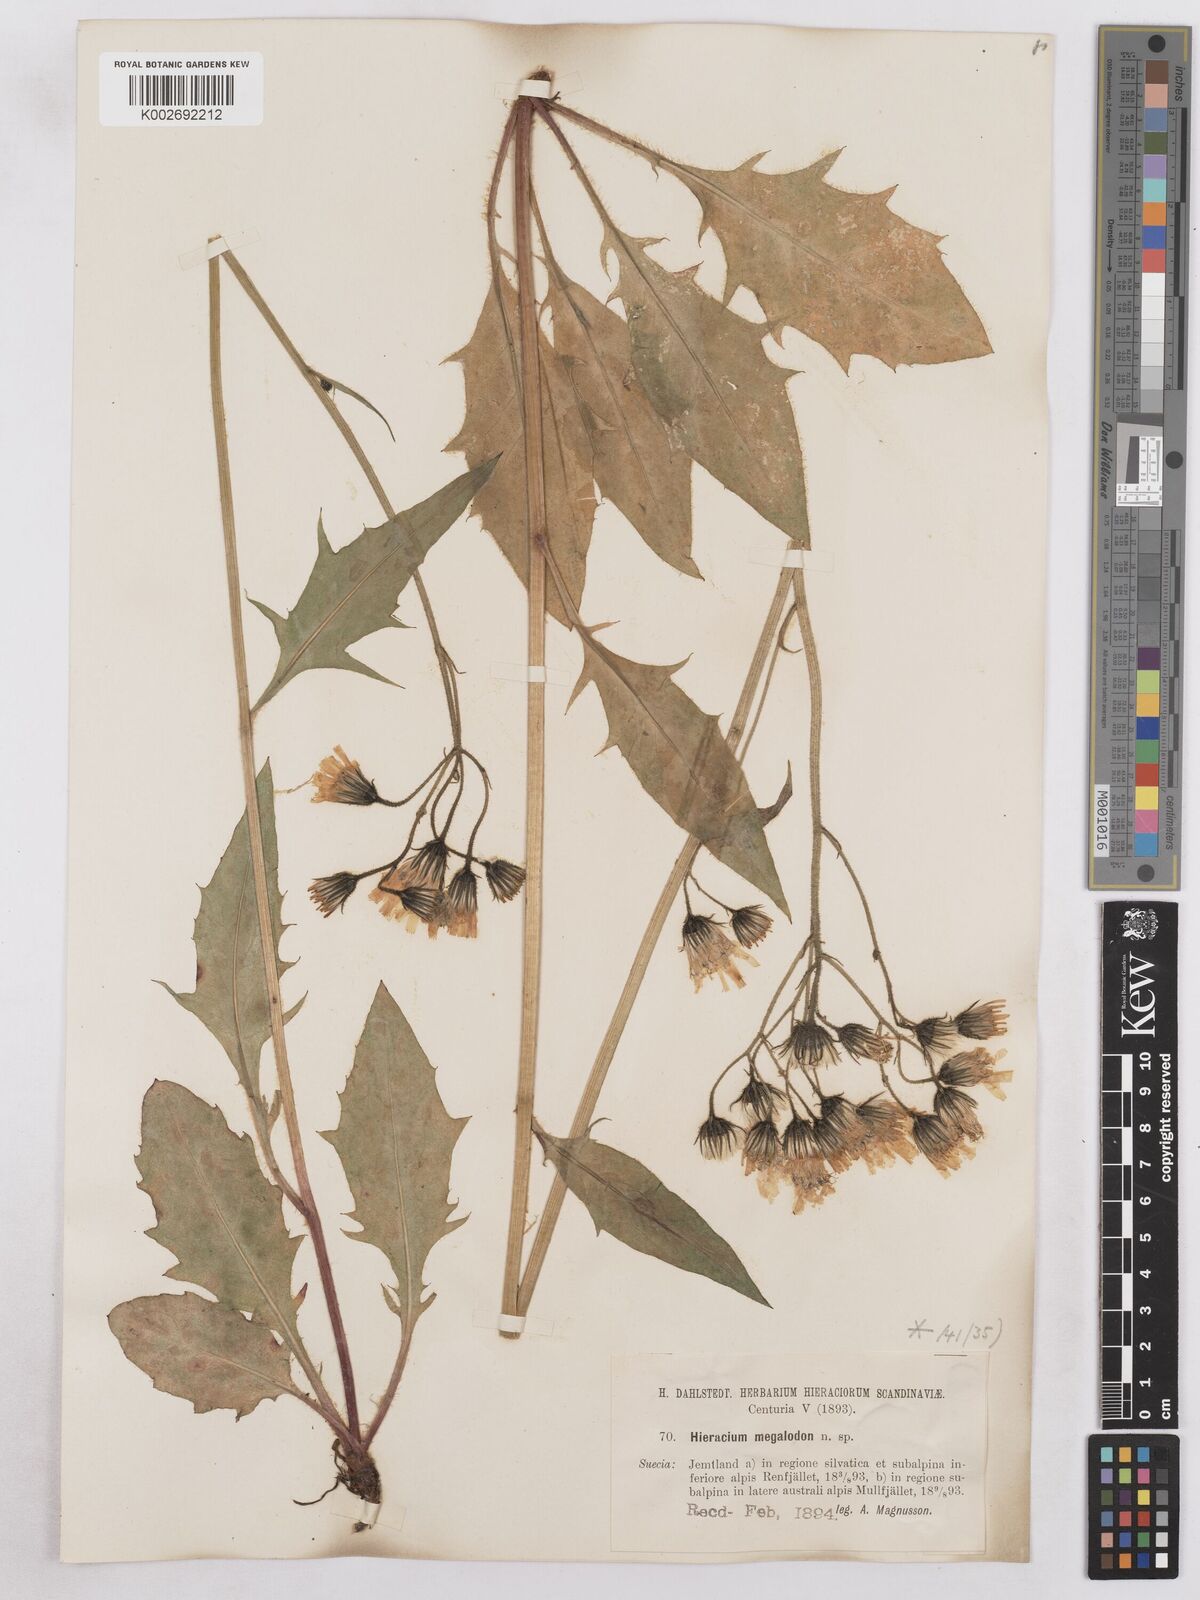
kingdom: Plantae
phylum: Tracheophyta
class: Magnoliopsida
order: Asterales
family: Asteraceae
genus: Hieracium
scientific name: Hieracium diaphanoides
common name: Fine-bracted hawkweed
